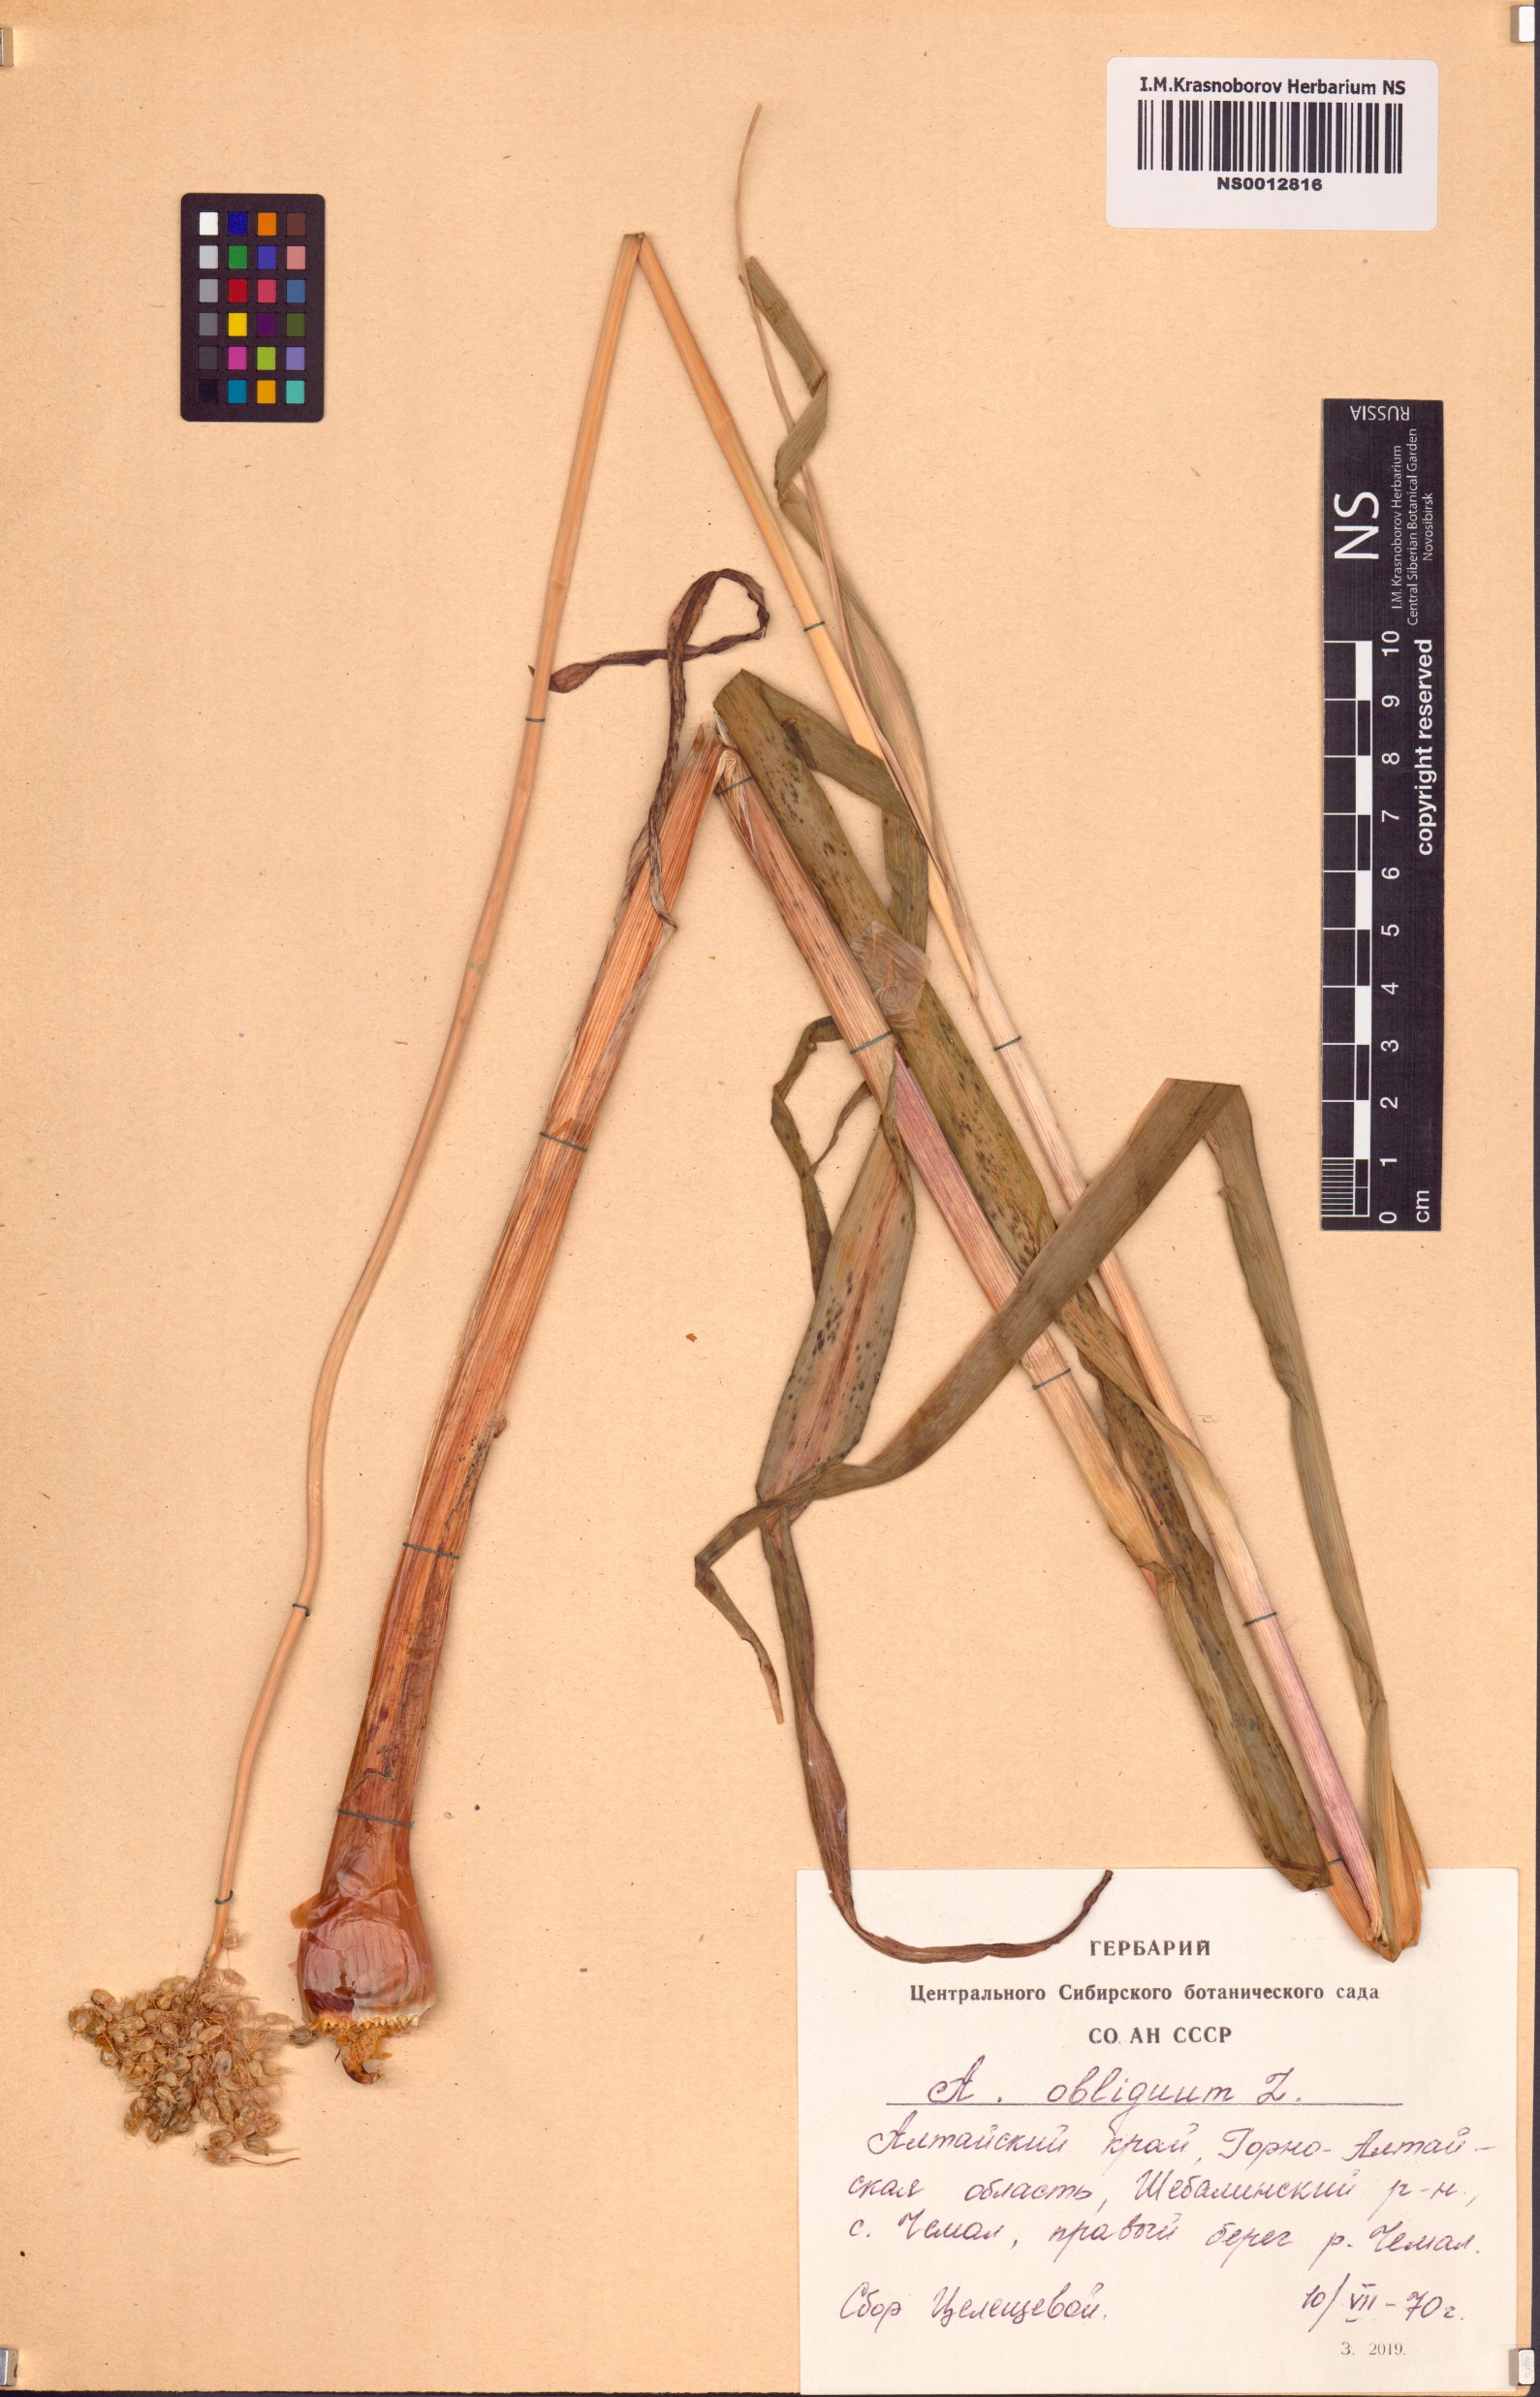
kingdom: Plantae
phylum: Tracheophyta
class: Liliopsida
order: Asparagales
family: Amaryllidaceae
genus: Allium
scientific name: Allium obliquum
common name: Oblique onion
